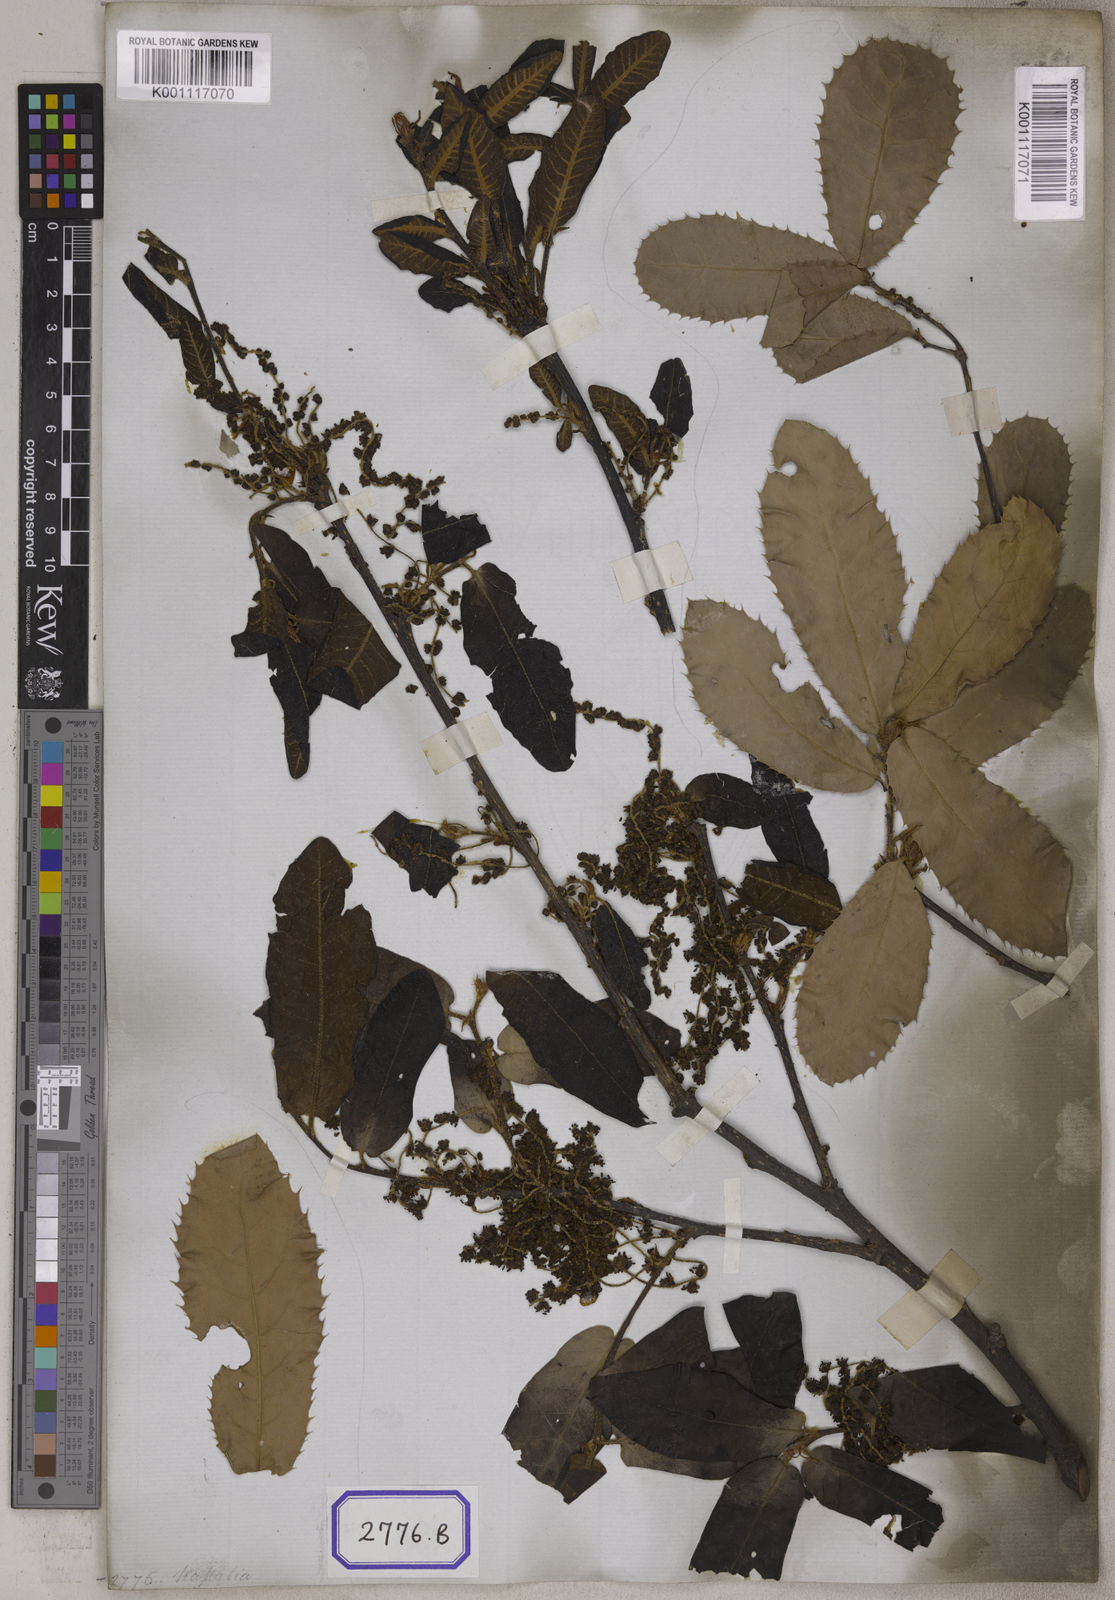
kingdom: Plantae
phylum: Tracheophyta
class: Magnoliopsida
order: Fagales
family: Fagaceae
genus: Quercus
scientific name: Quercus semecarpifolia
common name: Brown oak
